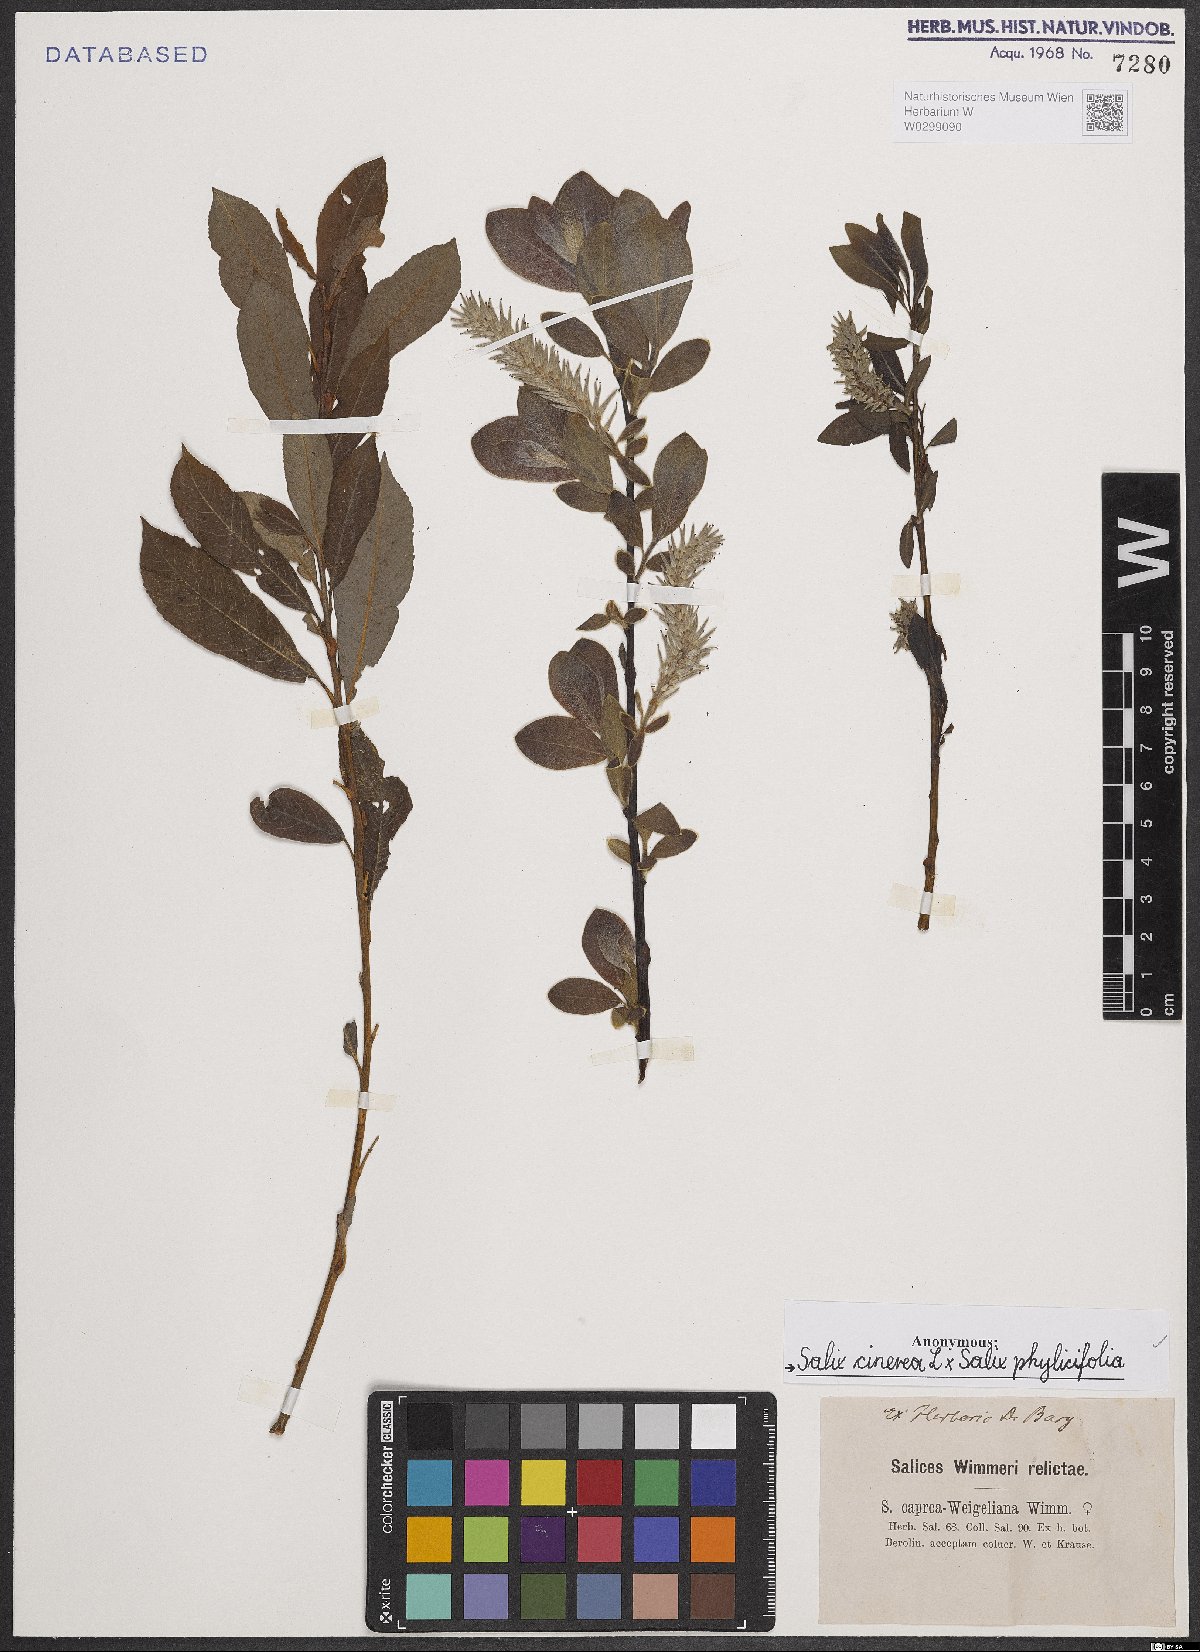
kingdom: Plantae
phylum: Tracheophyta
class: Magnoliopsida
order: Malpighiales
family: Salicaceae
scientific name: Salicaceae
